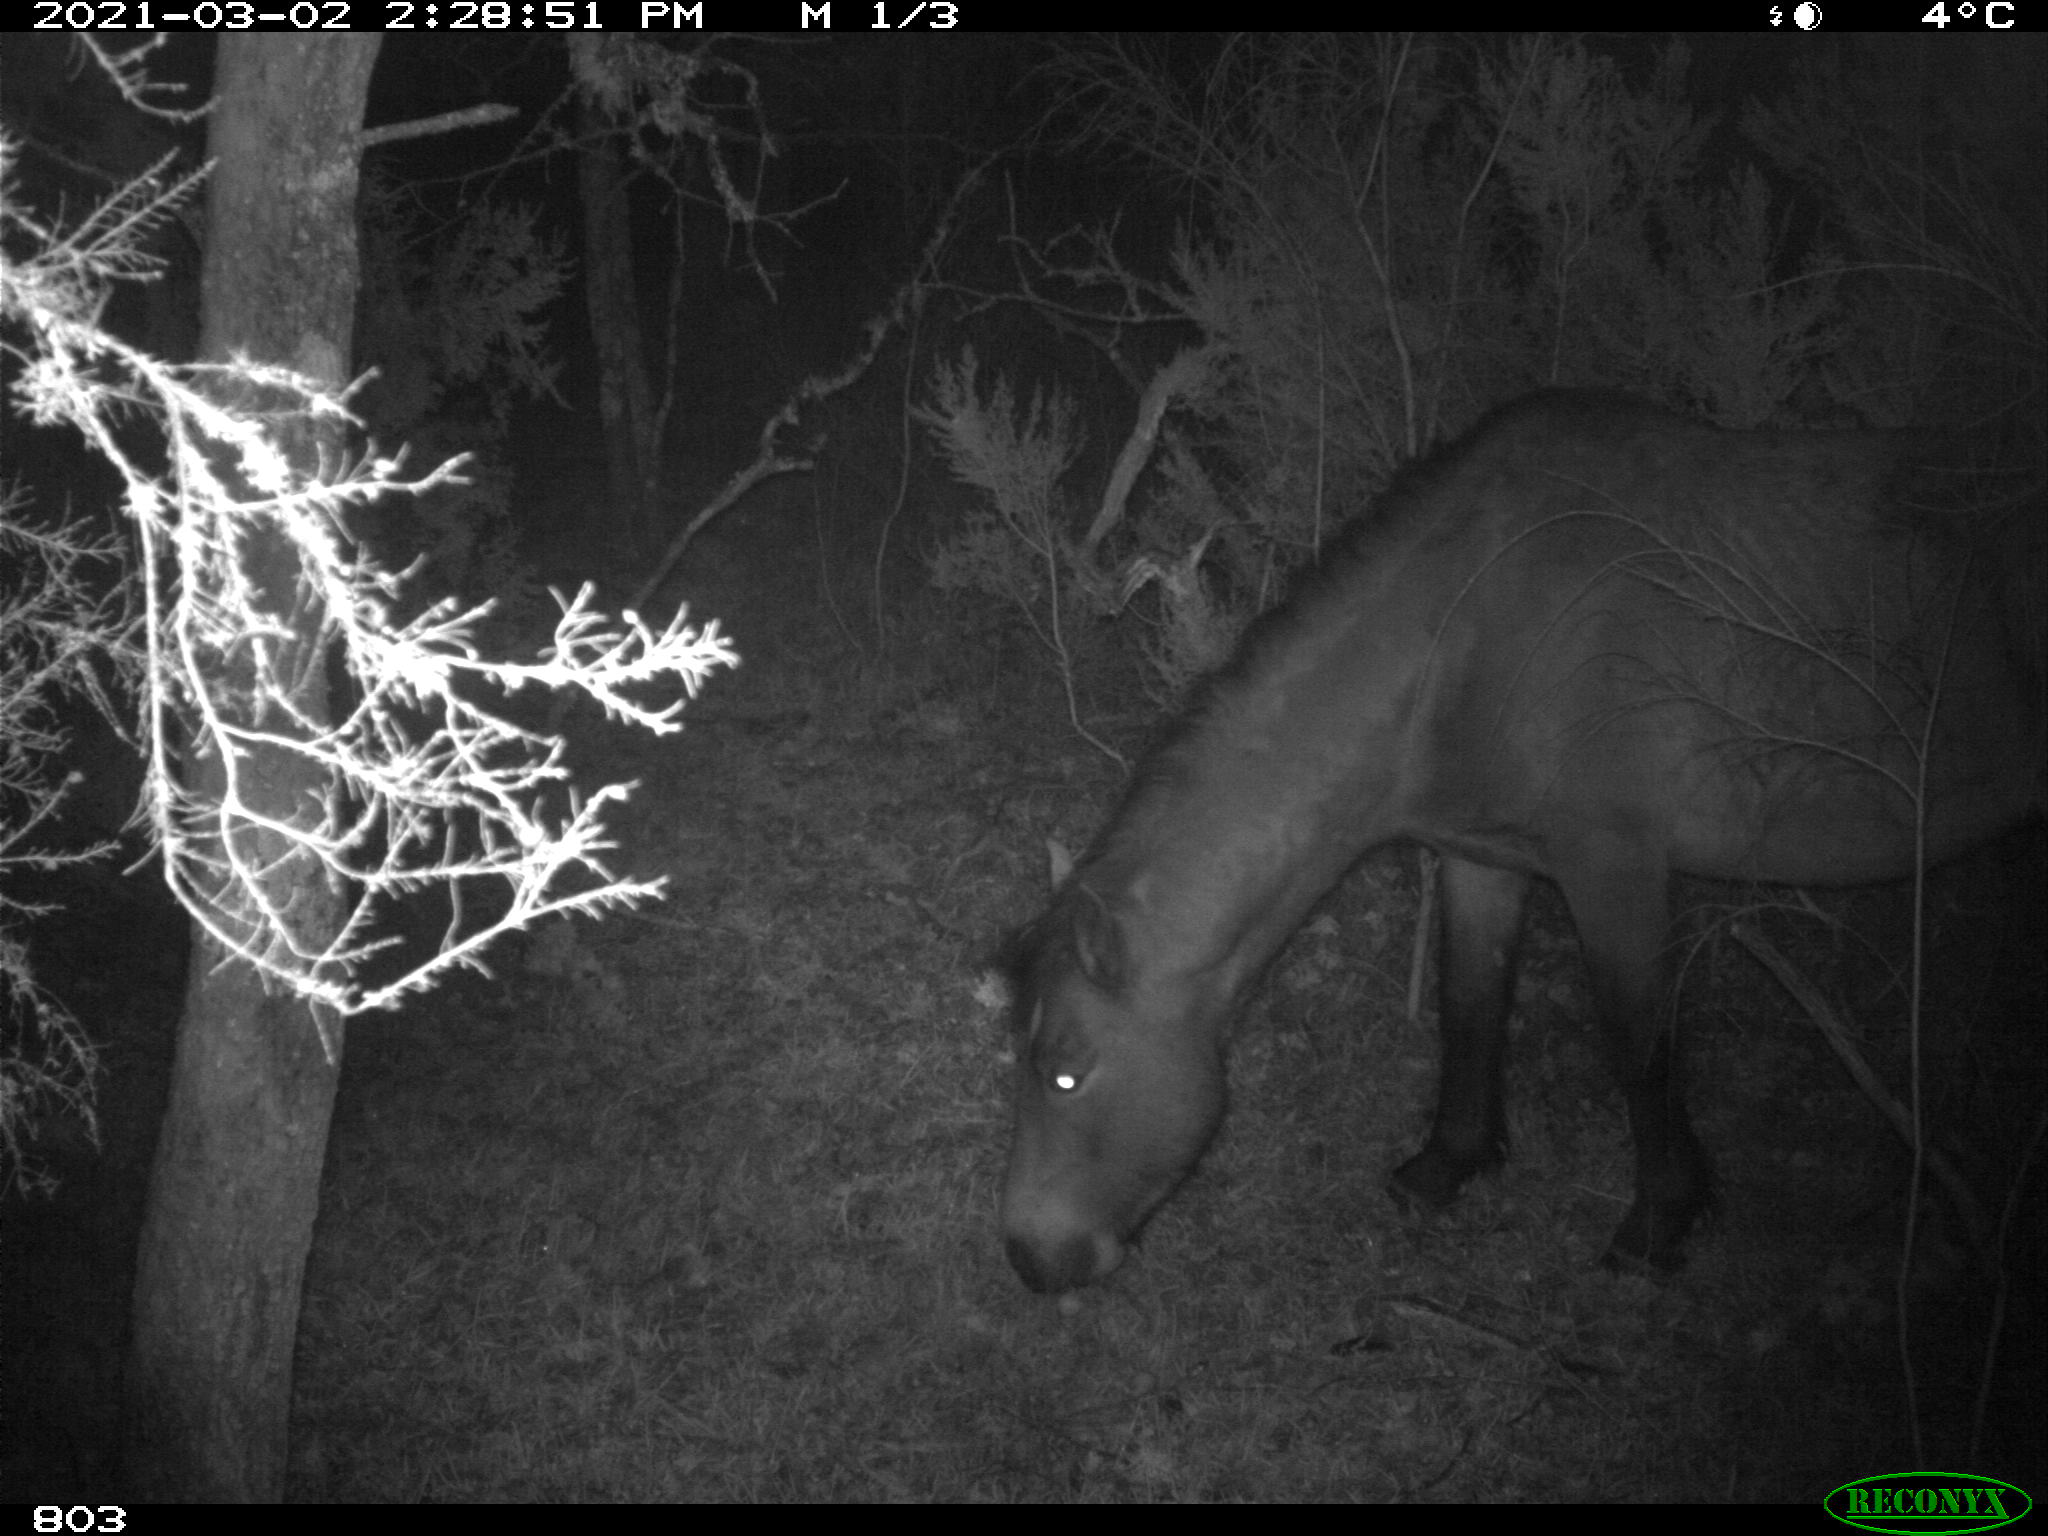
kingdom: Animalia
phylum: Chordata
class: Mammalia
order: Perissodactyla
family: Equidae
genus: Equus
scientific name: Equus caballus
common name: Horse
